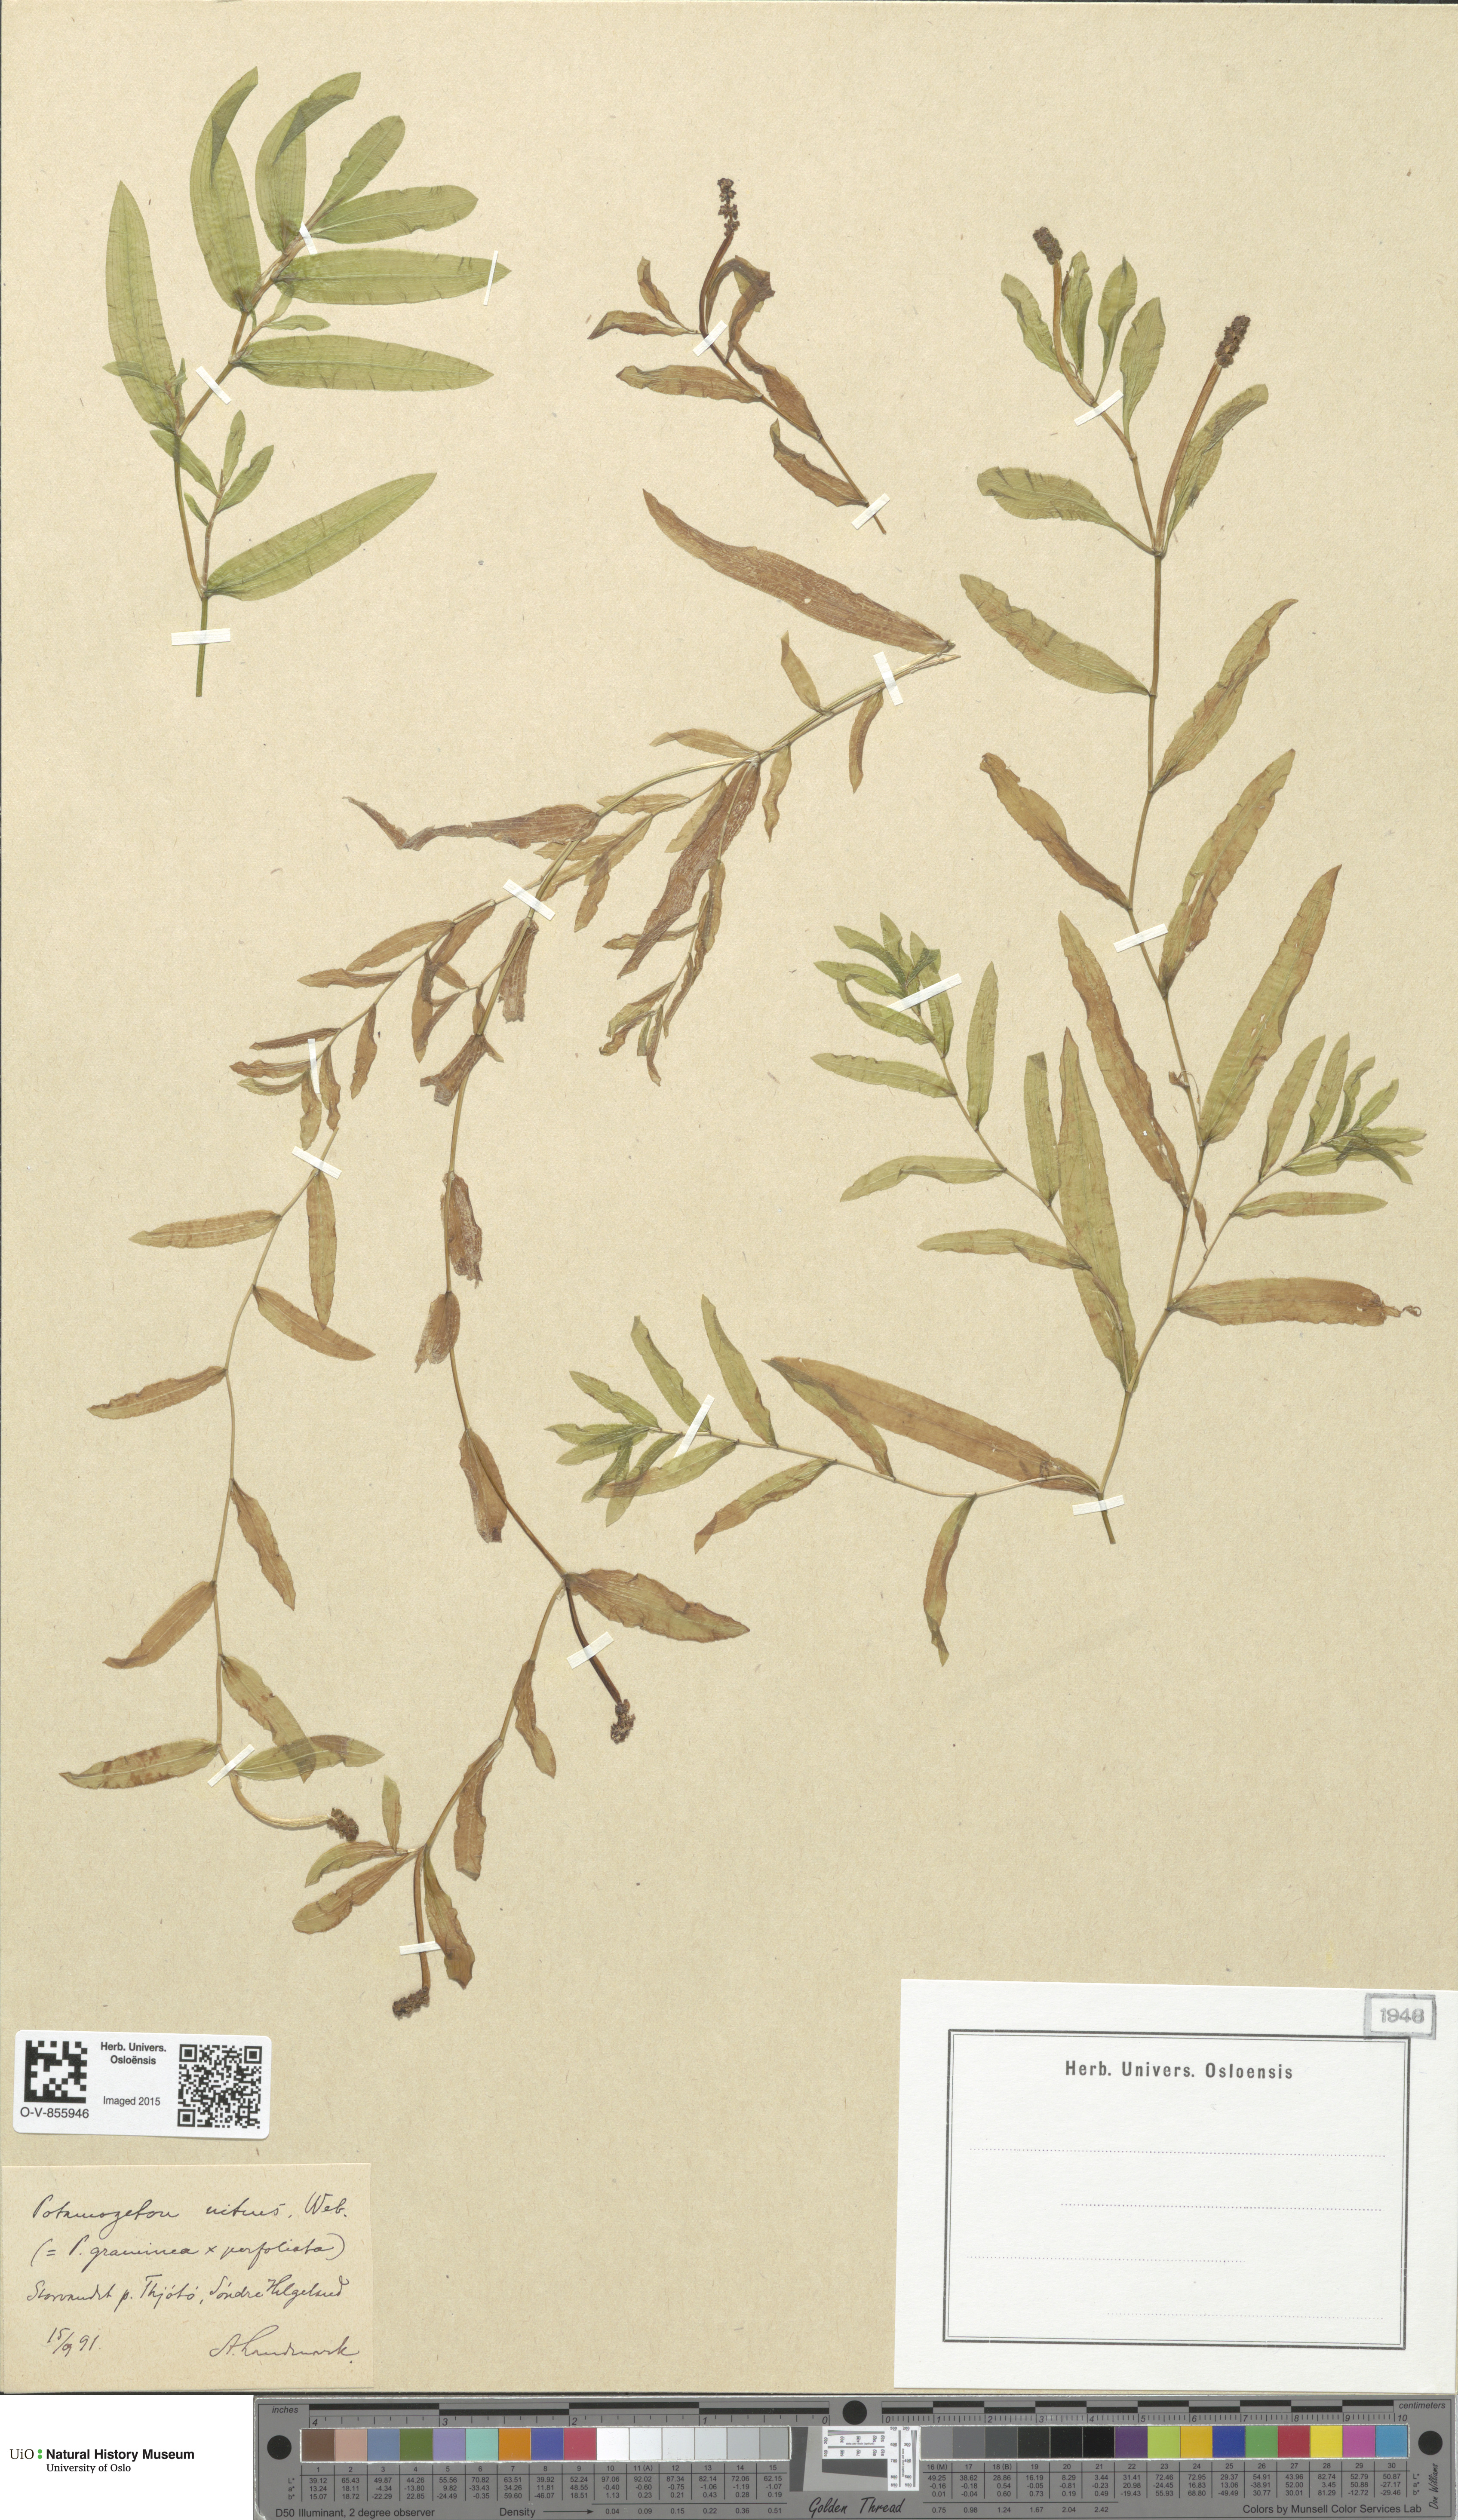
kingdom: Plantae
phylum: Tracheophyta
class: Liliopsida
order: Alismatales
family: Potamogetonaceae
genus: Potamogeton
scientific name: Potamogeton nitens
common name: Pondweed
